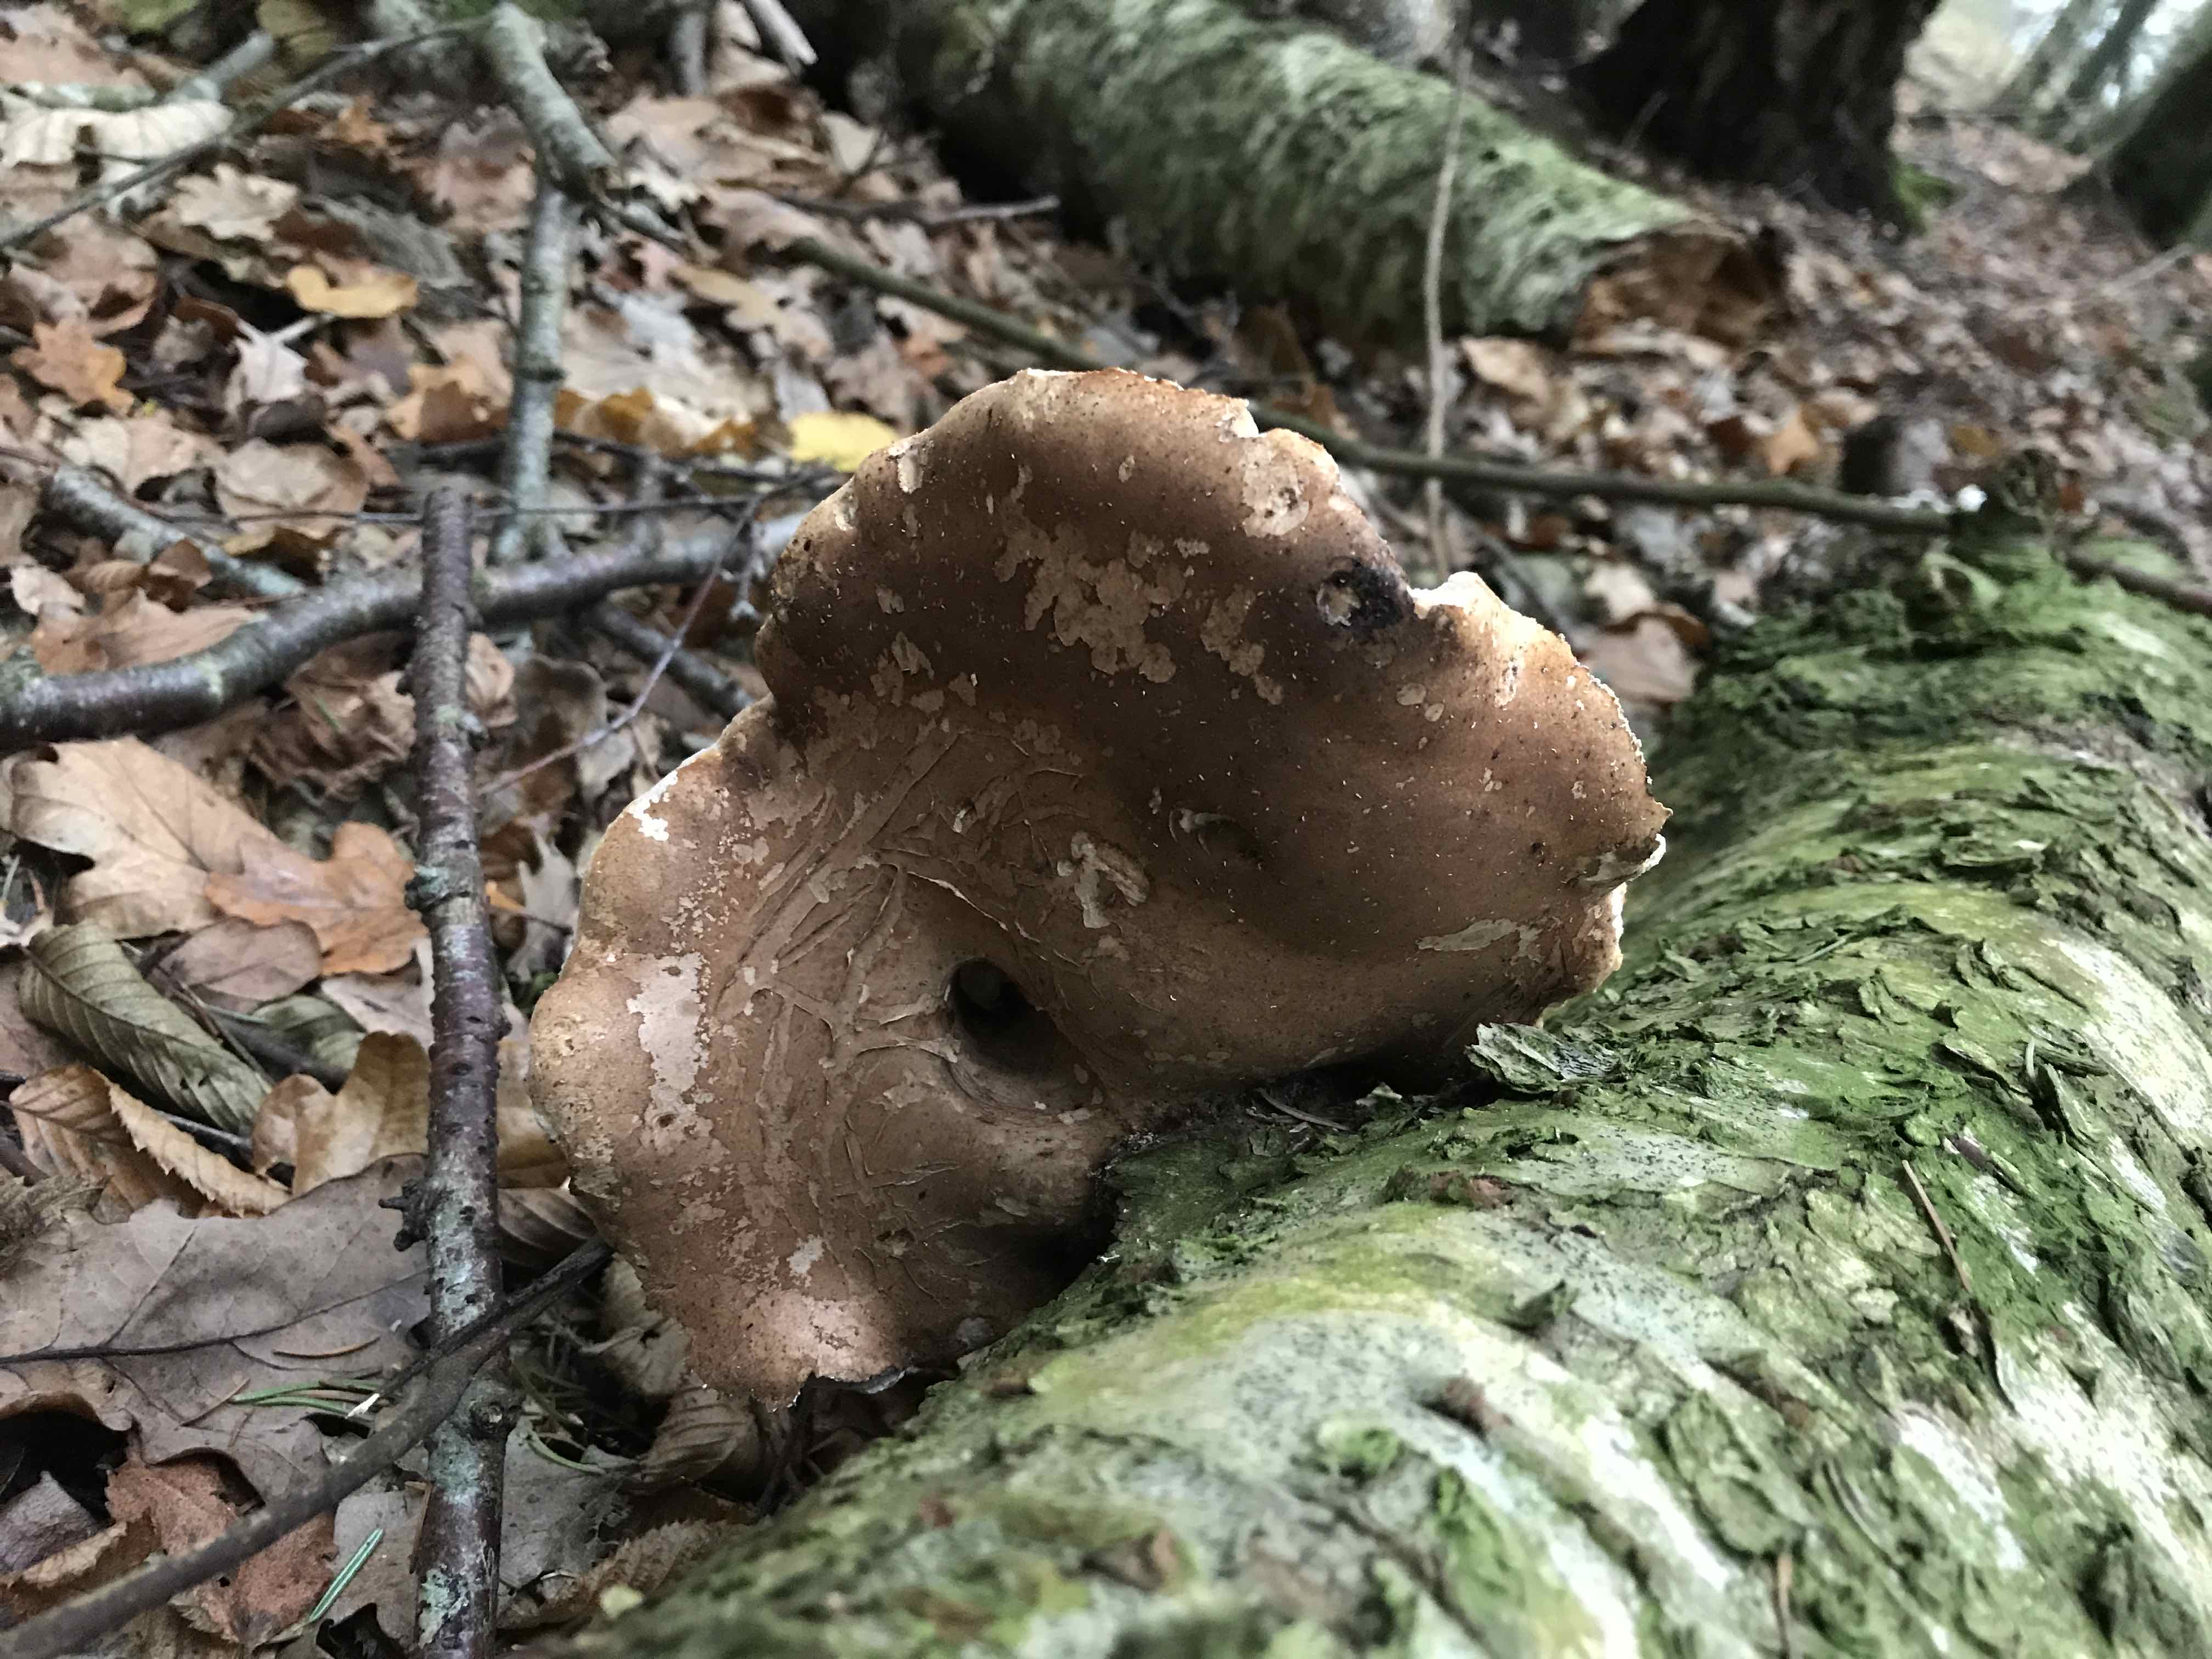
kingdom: Fungi
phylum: Basidiomycota
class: Agaricomycetes
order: Polyporales
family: Fomitopsidaceae
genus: Fomitopsis
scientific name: Fomitopsis betulina
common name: birkeporesvamp
